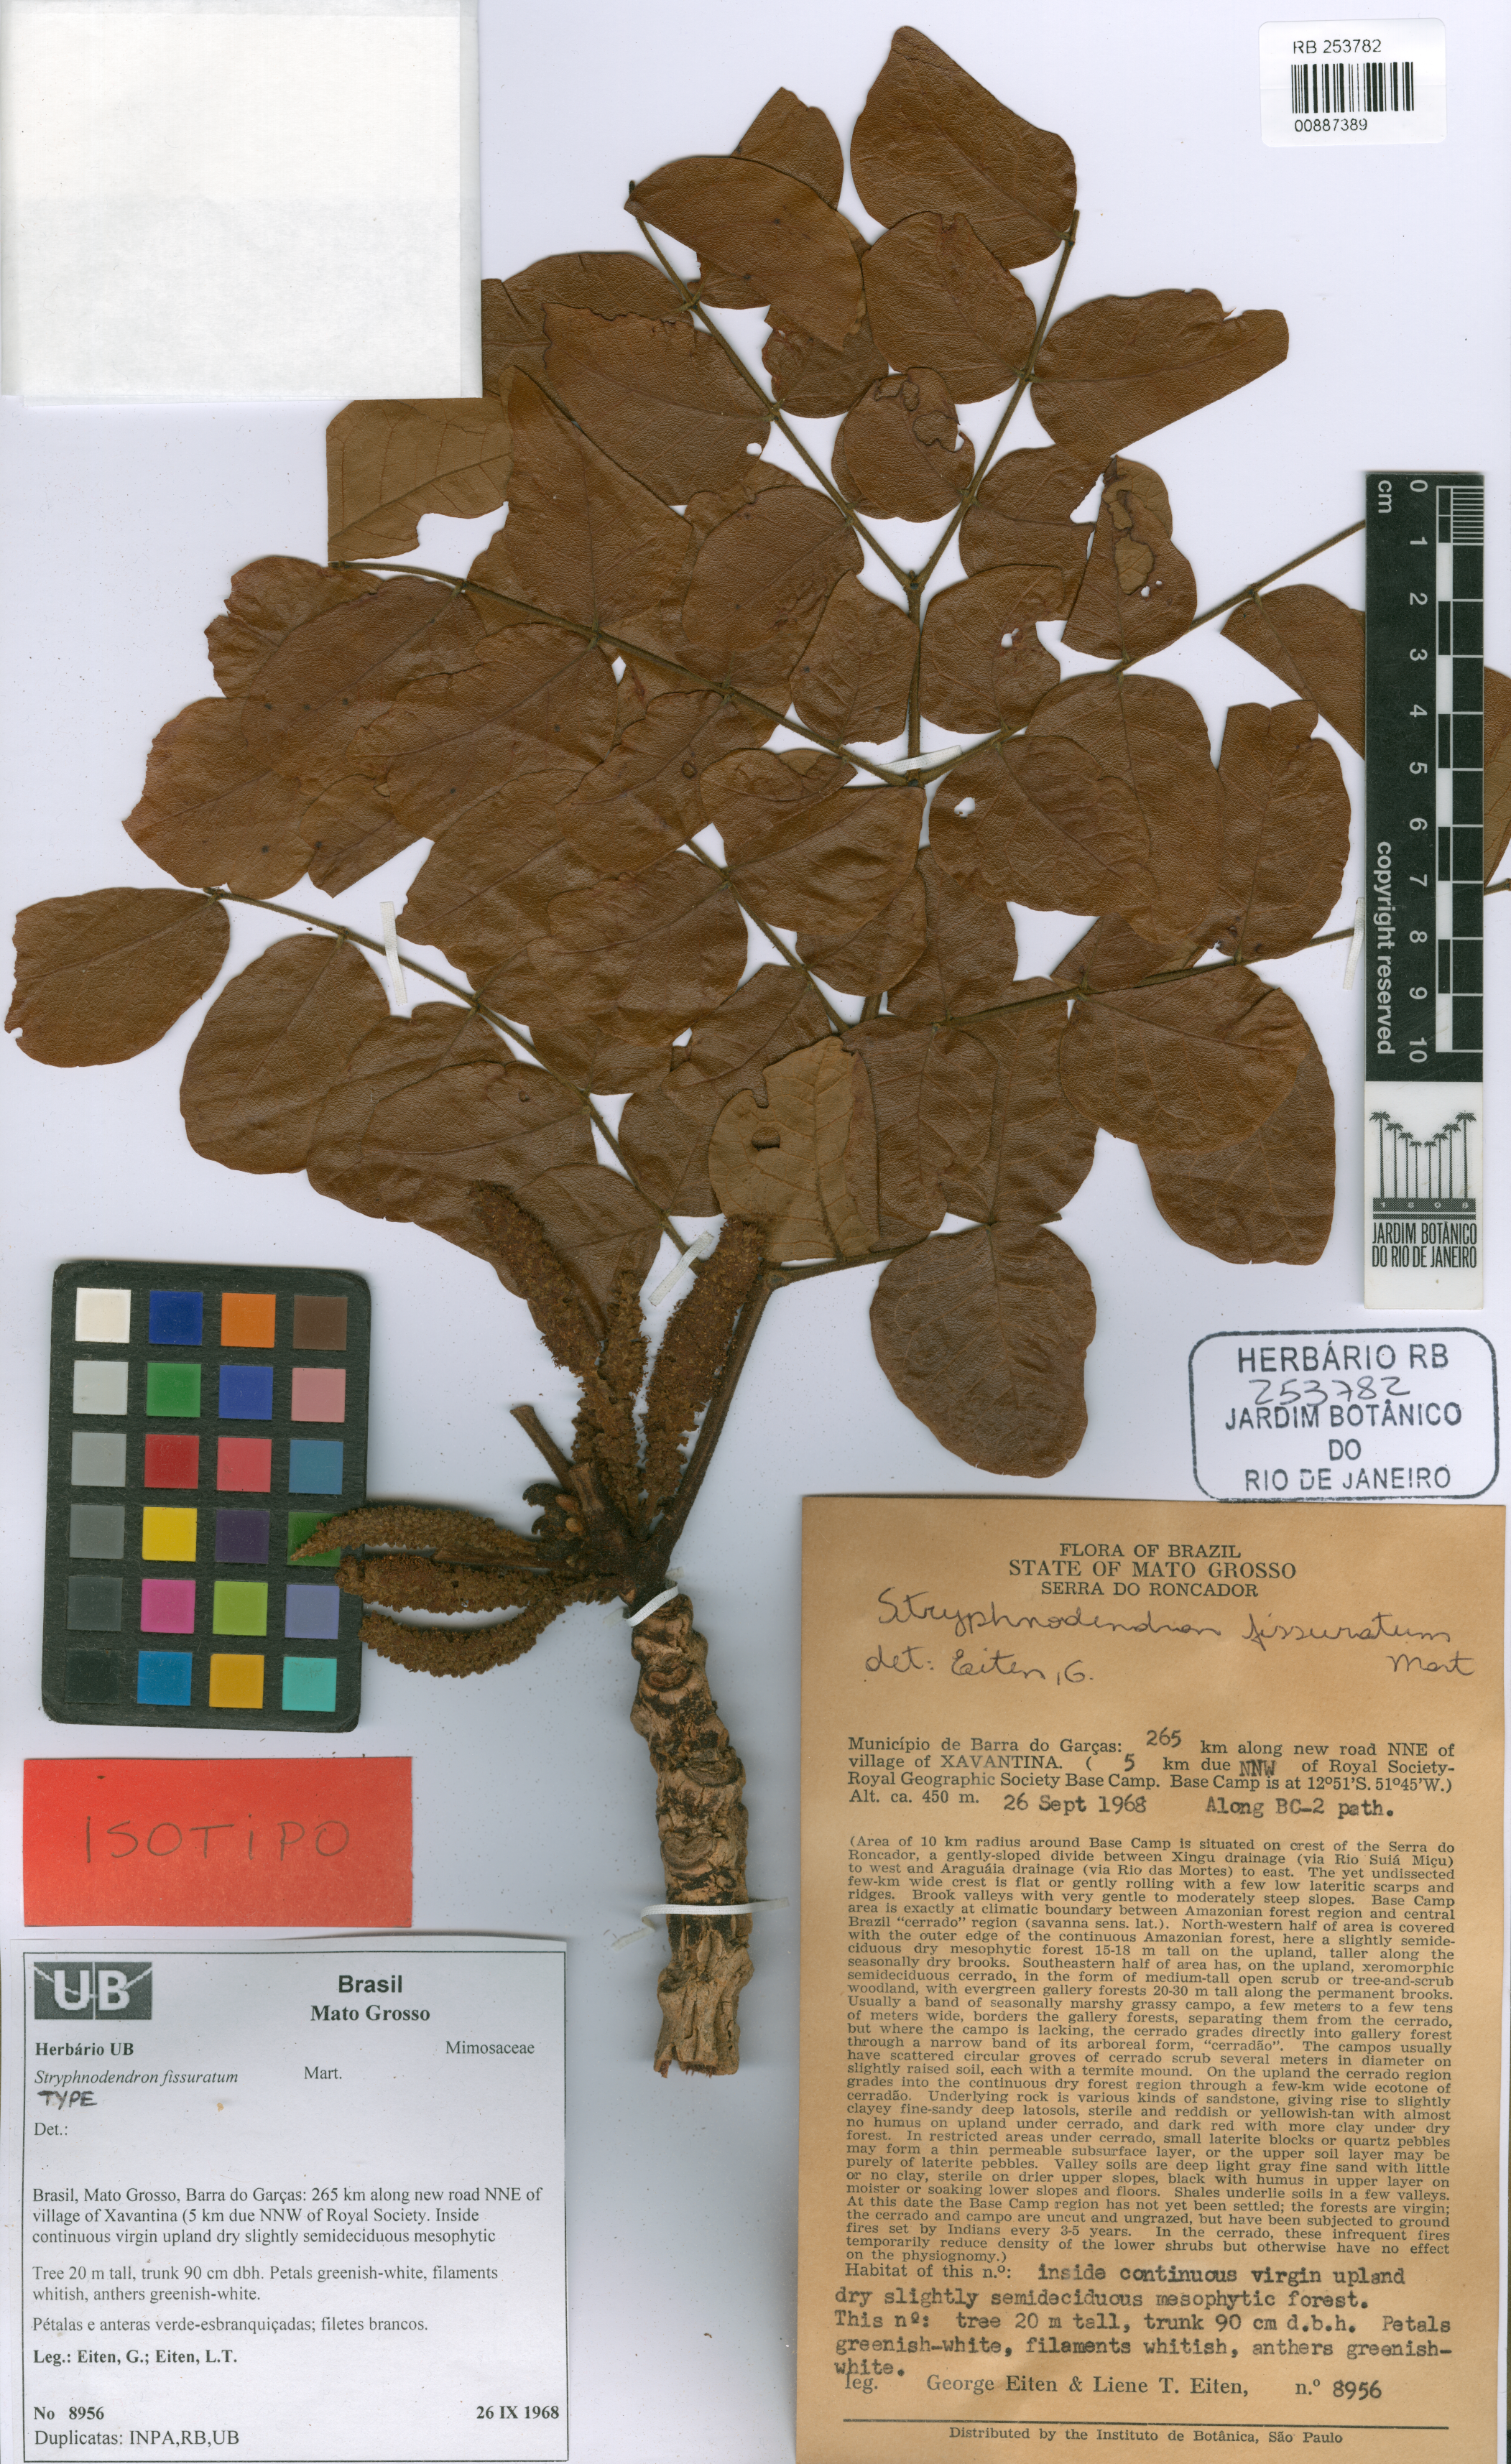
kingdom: Plantae
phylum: Tracheophyta
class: Magnoliopsida
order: Fabales
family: Fabaceae
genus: Stryphnodendron
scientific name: Stryphnodendron fissuratum
